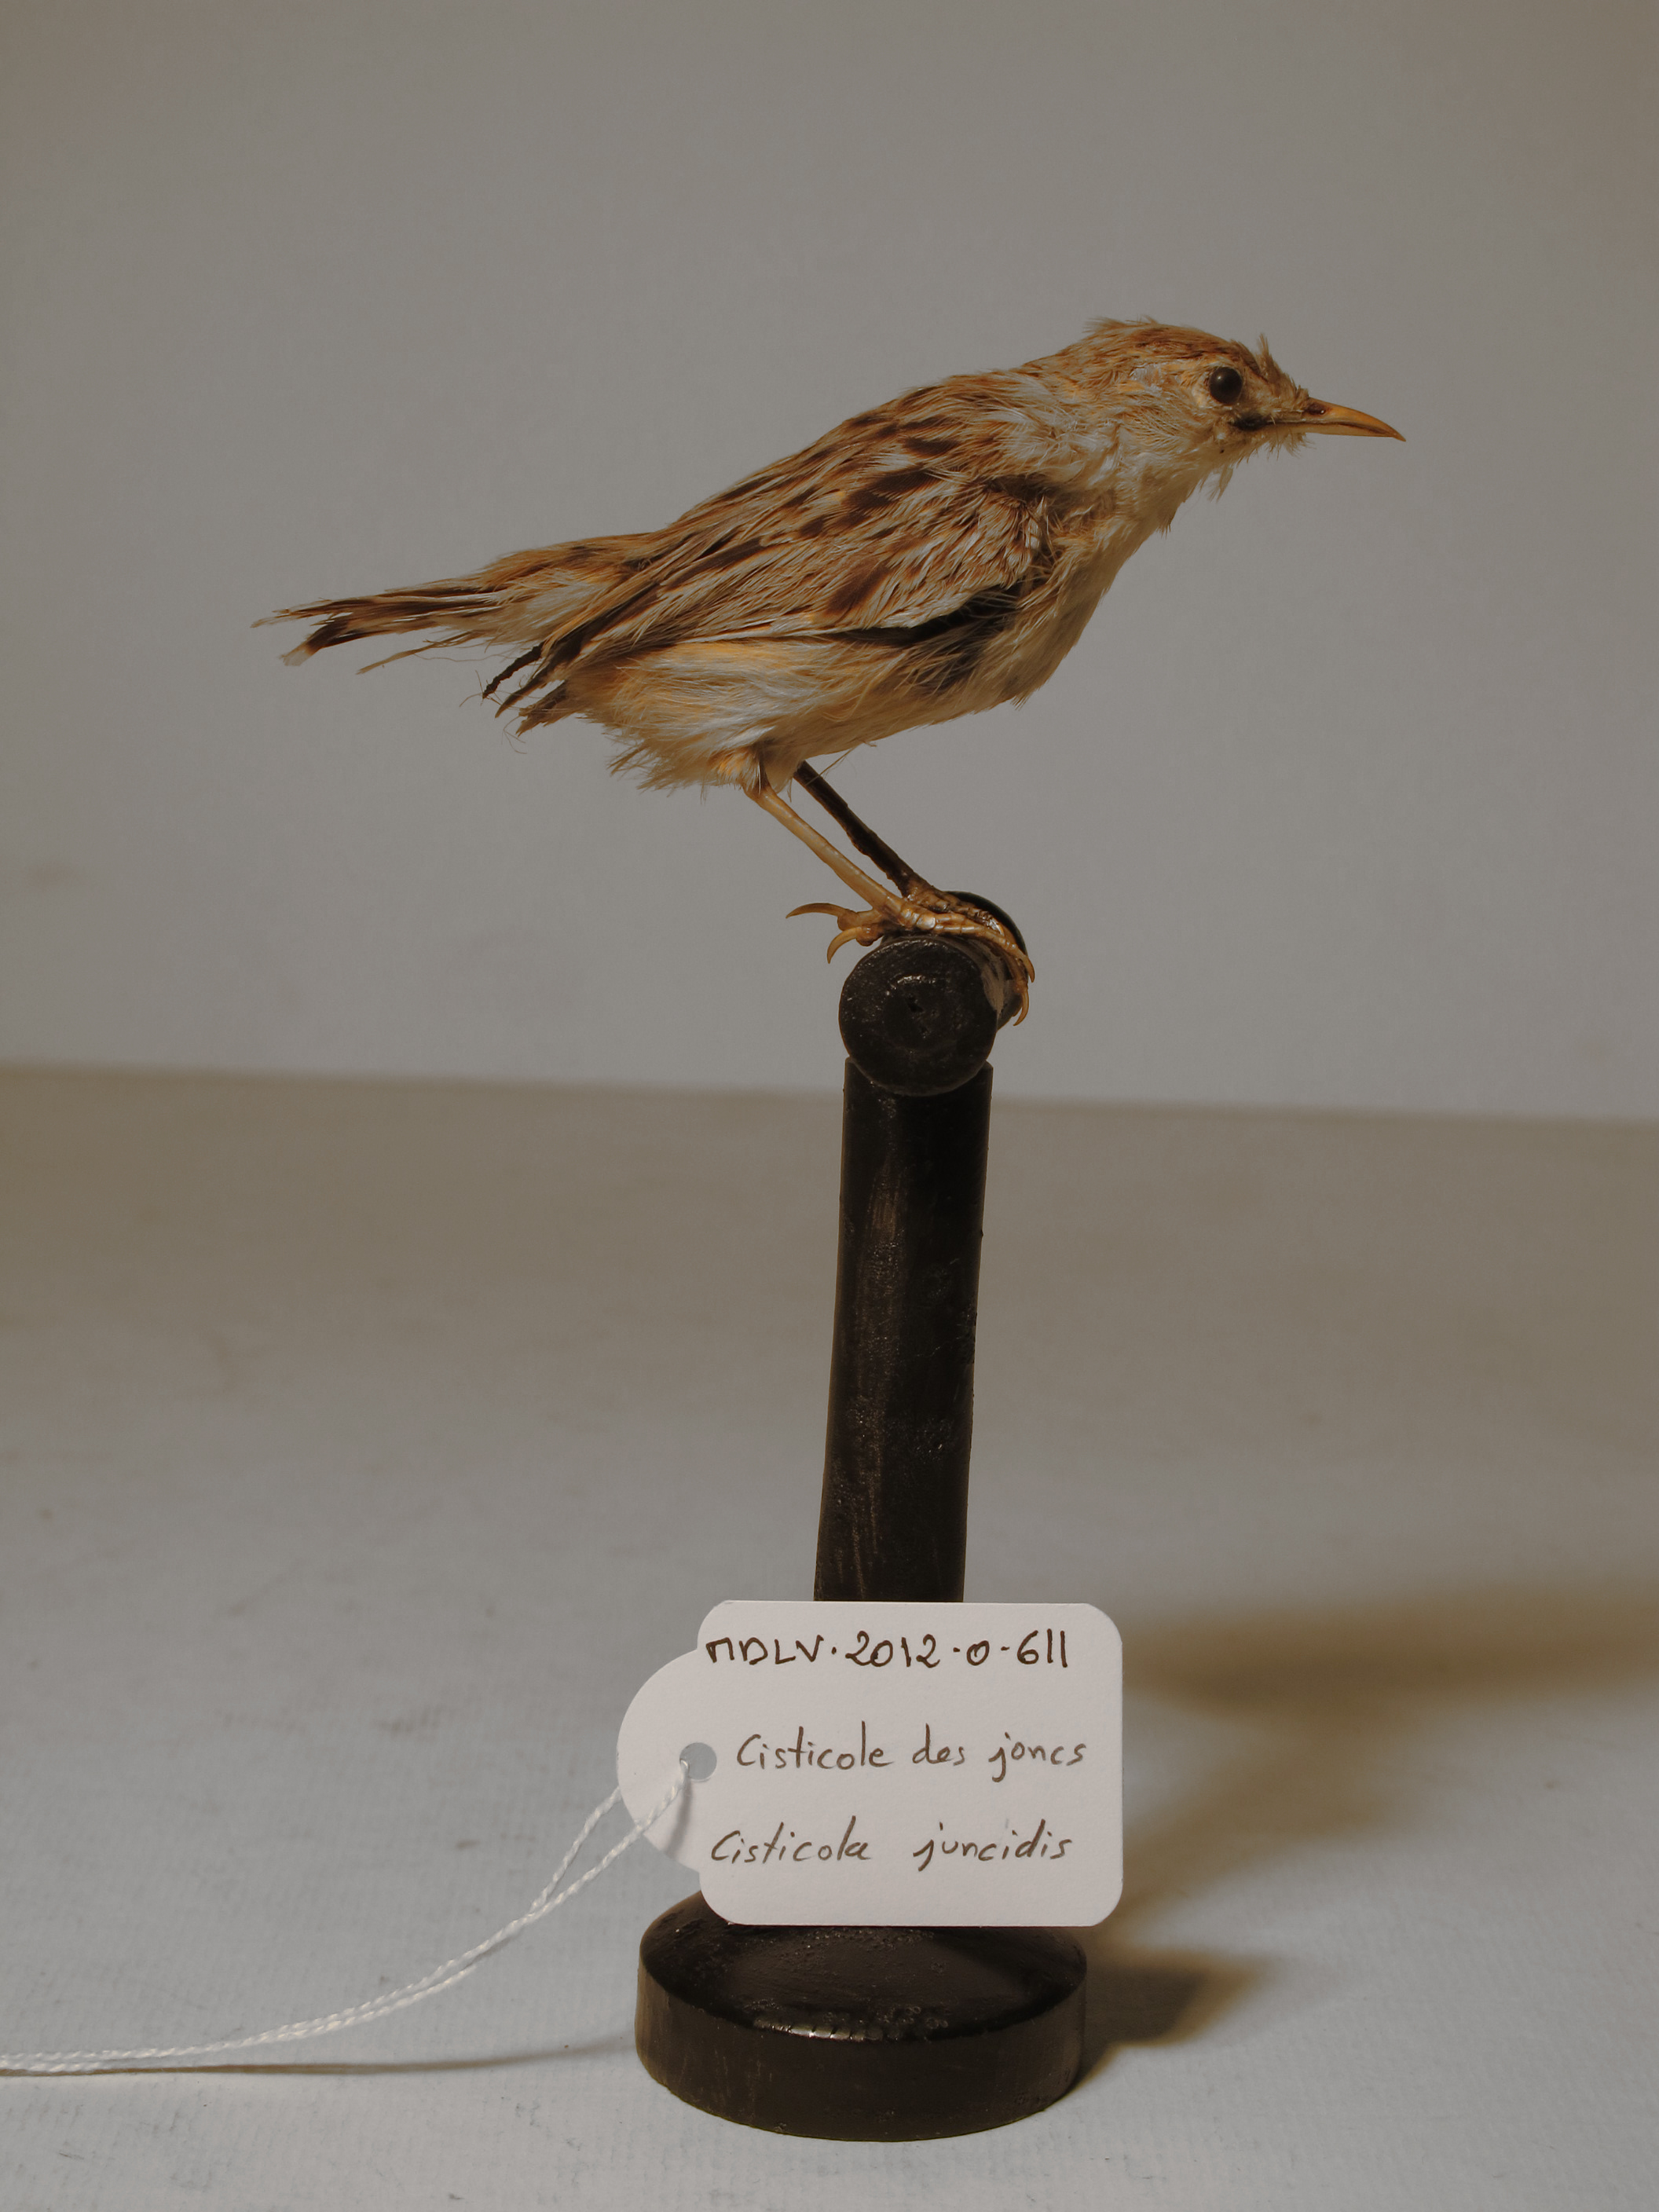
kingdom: Animalia
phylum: Chordata
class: Aves
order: Passeriformes
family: Cisticolidae
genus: Cisticola
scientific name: Cisticola juncidis
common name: Zitting Cisticola
